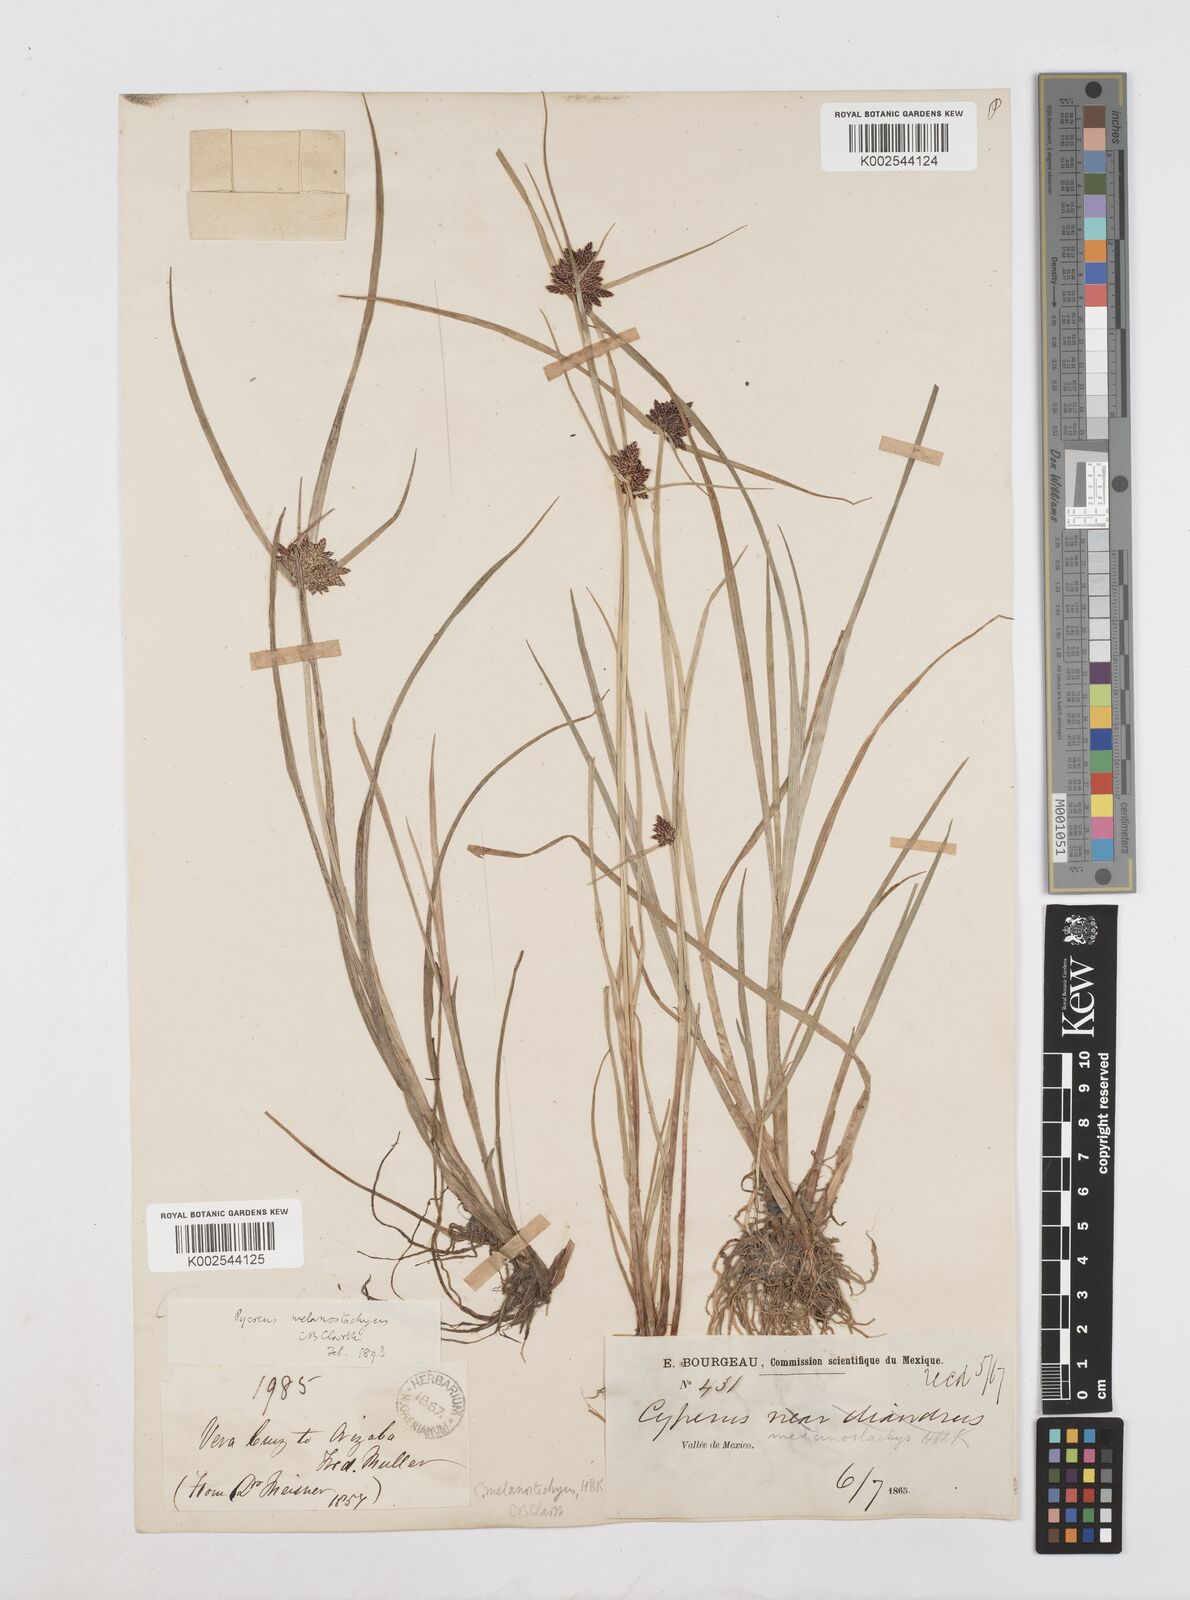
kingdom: Plantae
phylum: Tracheophyta
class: Liliopsida
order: Poales
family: Cyperaceae
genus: Cyperus
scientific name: Cyperus melanostachyus
